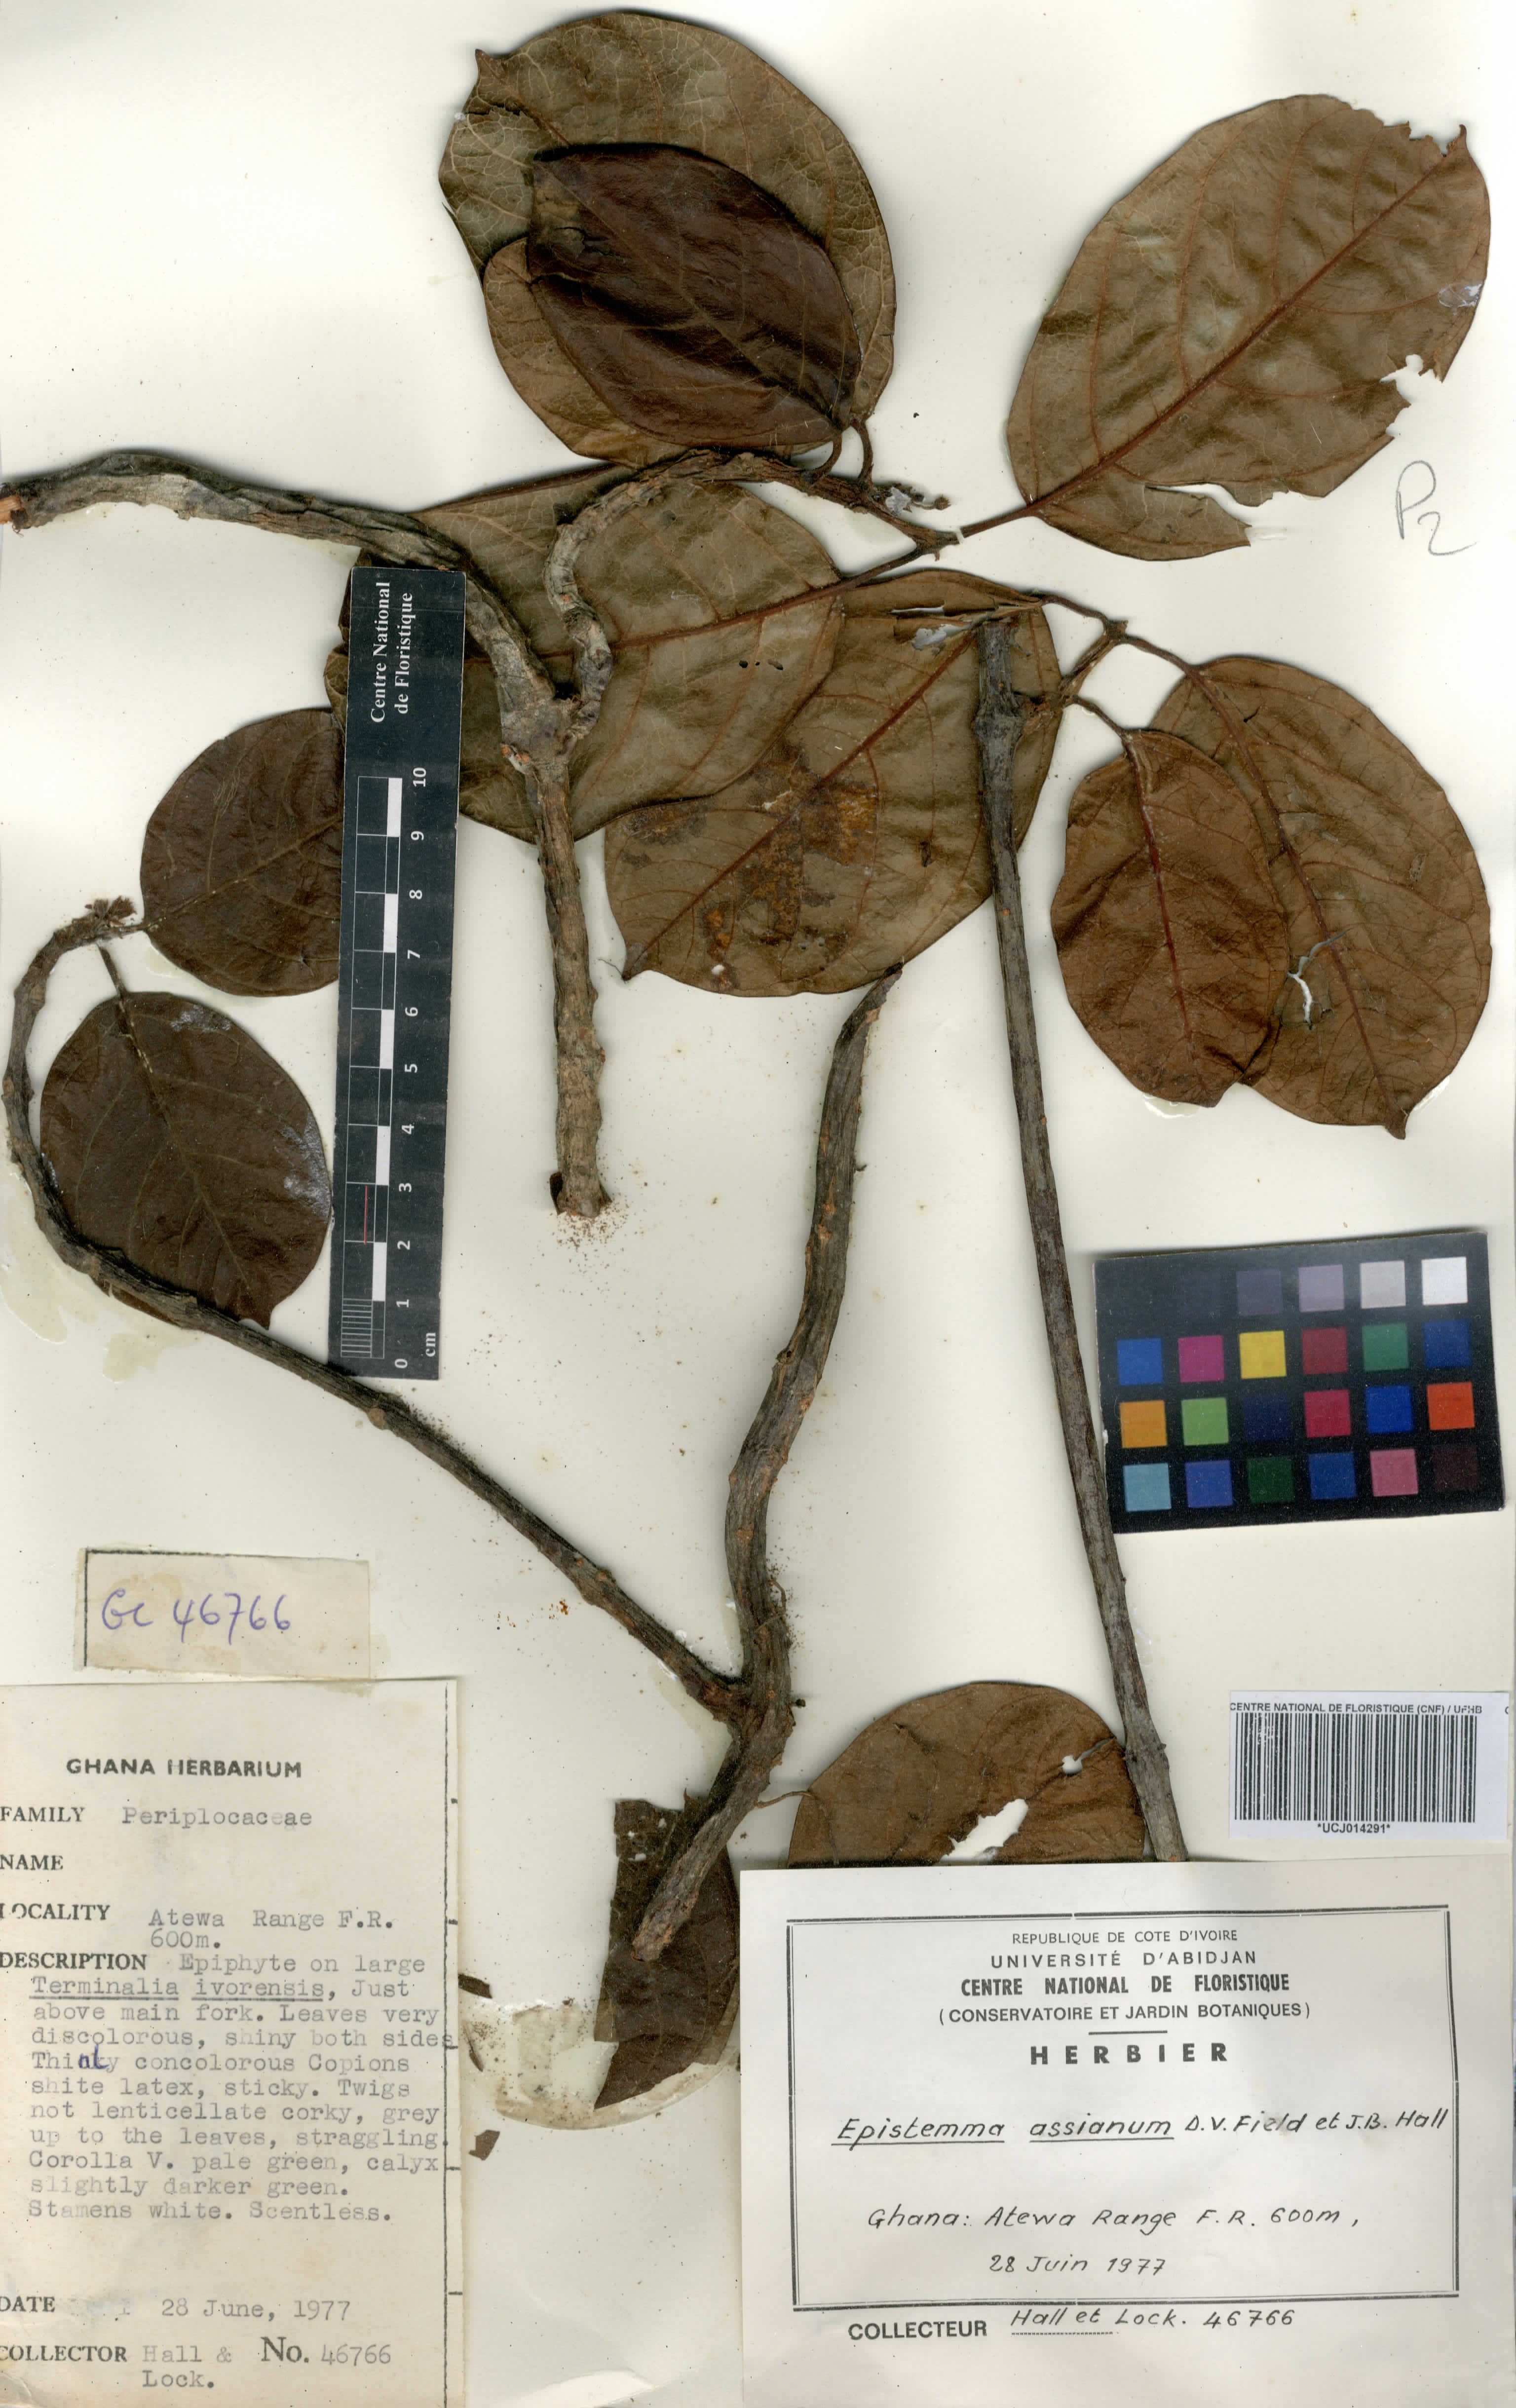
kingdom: Plantae
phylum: Tracheophyta
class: Magnoliopsida
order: Gentianales
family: Apocynaceae
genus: Epistemma
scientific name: Epistemma assianum
